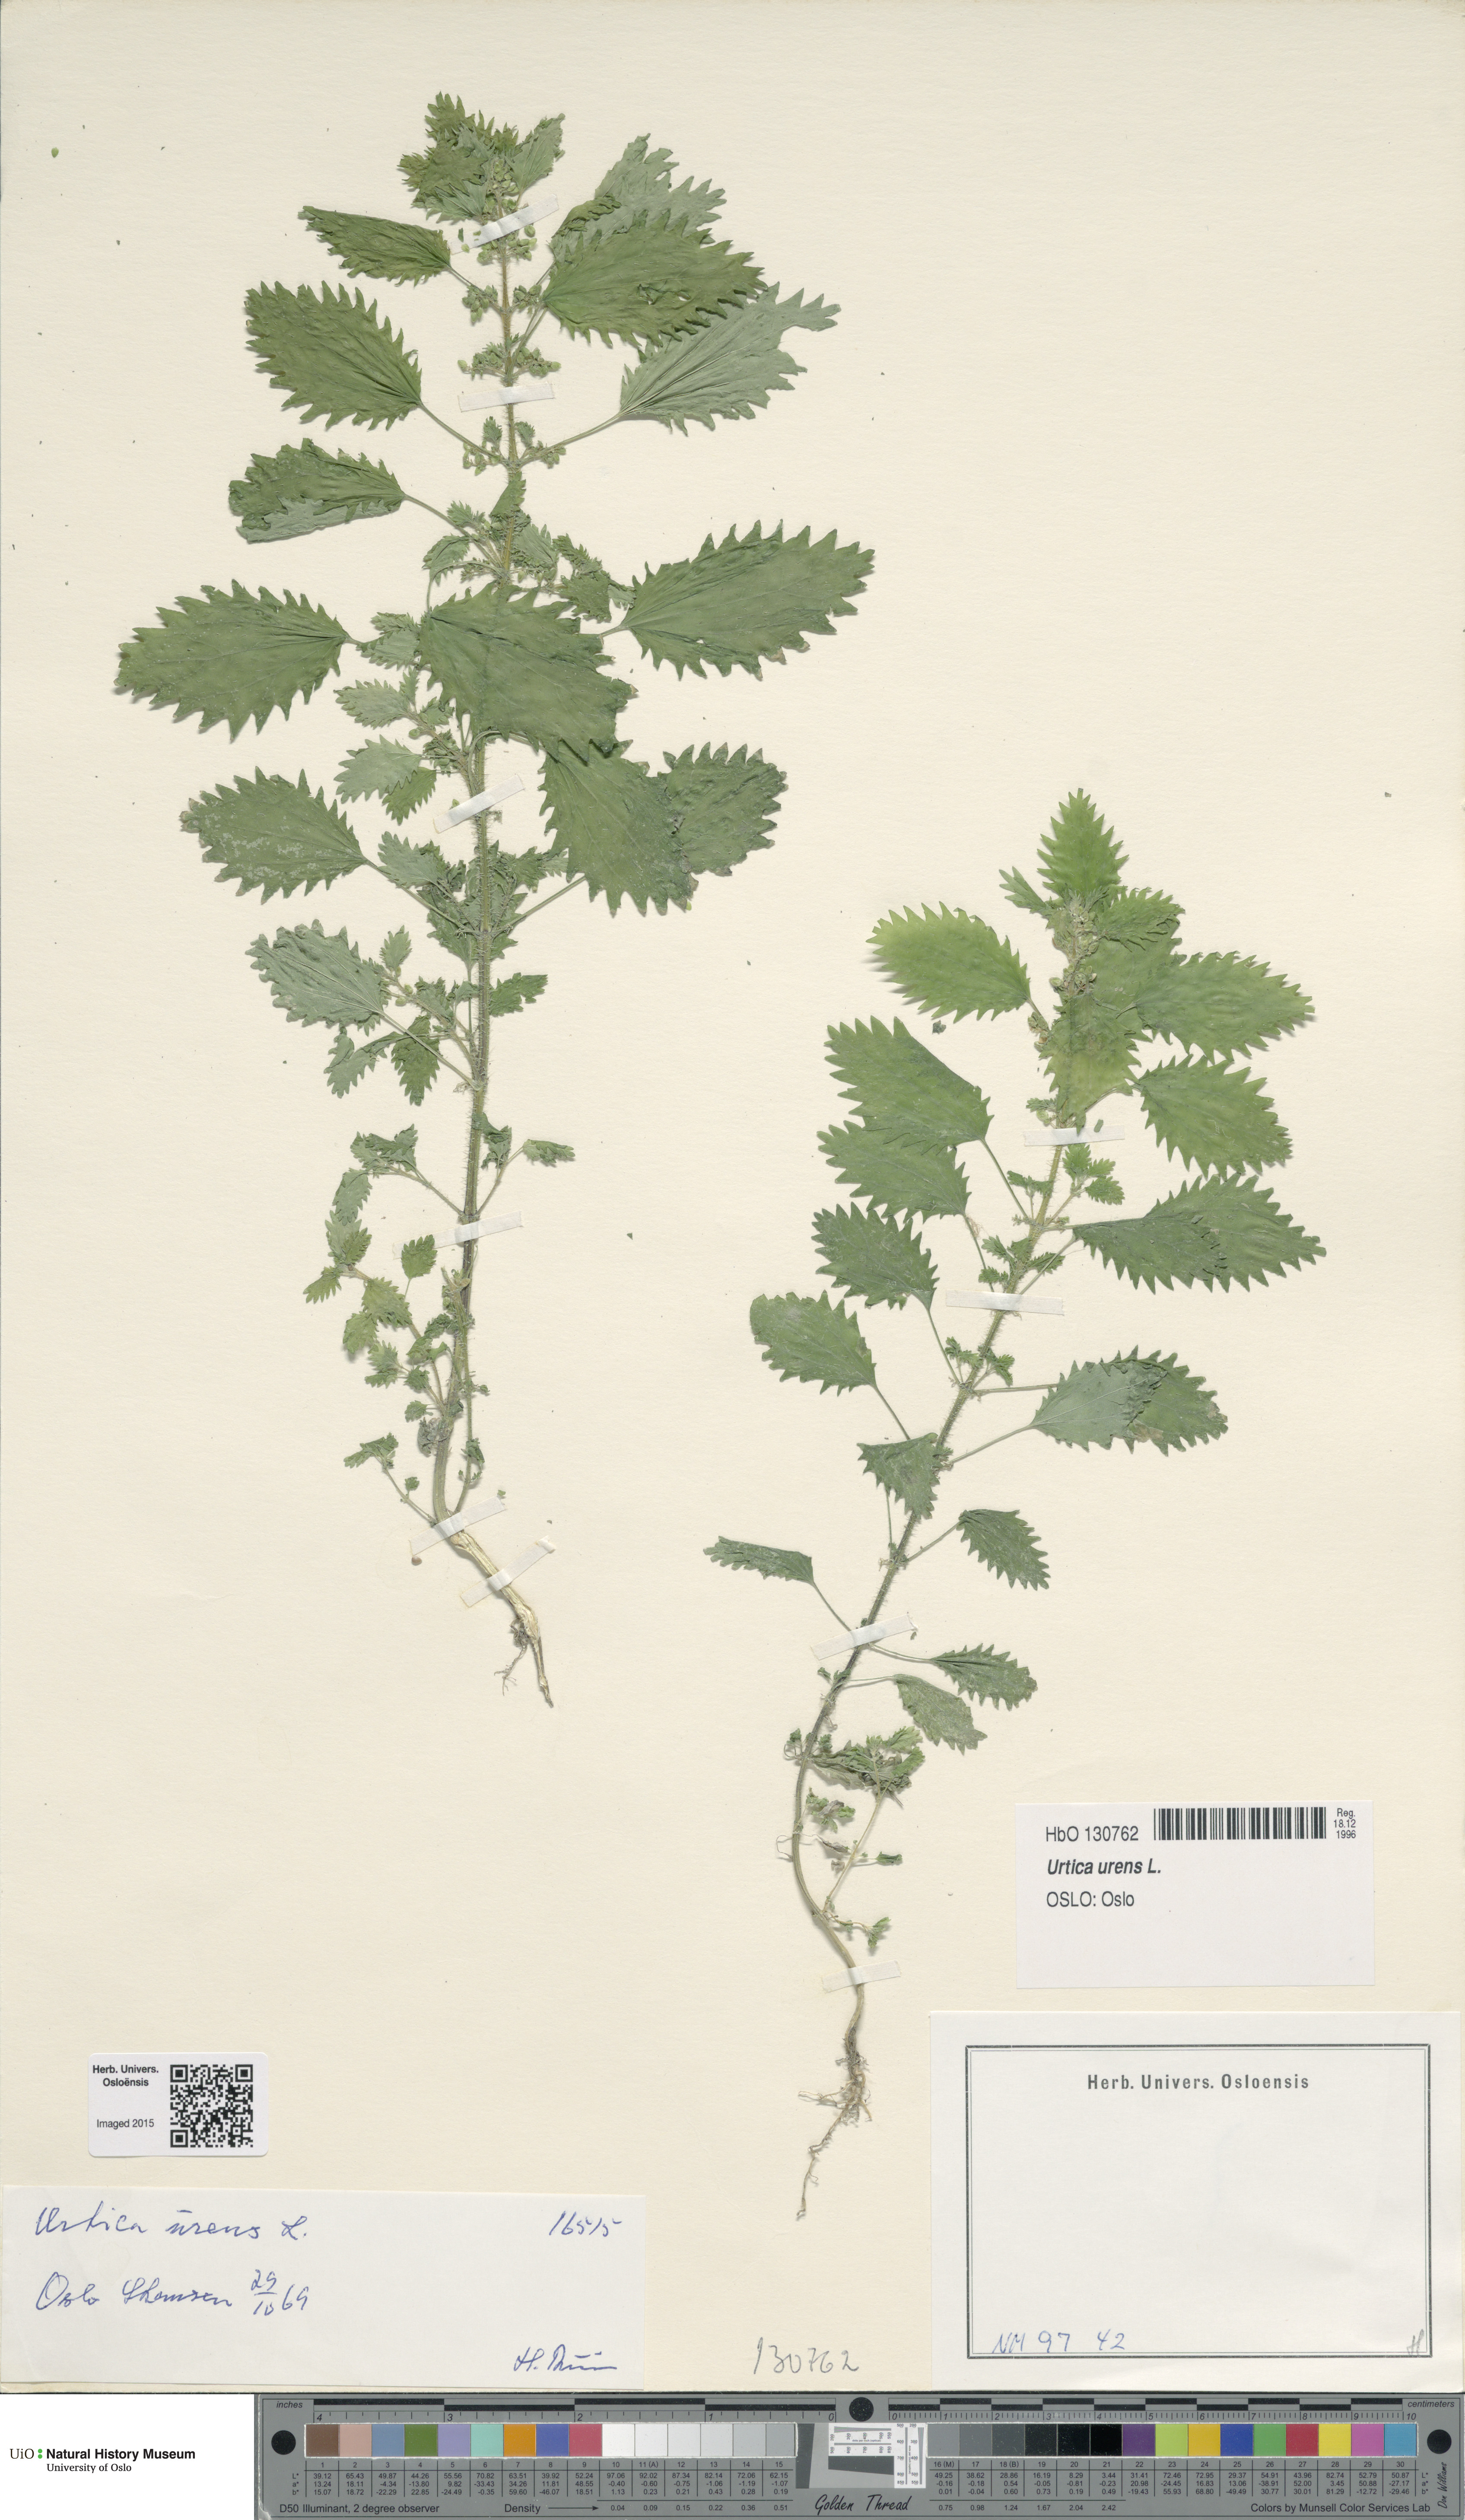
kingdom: Plantae
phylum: Tracheophyta
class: Magnoliopsida
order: Rosales
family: Urticaceae
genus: Urtica
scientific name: Urtica urens
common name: Dwarf nettle
